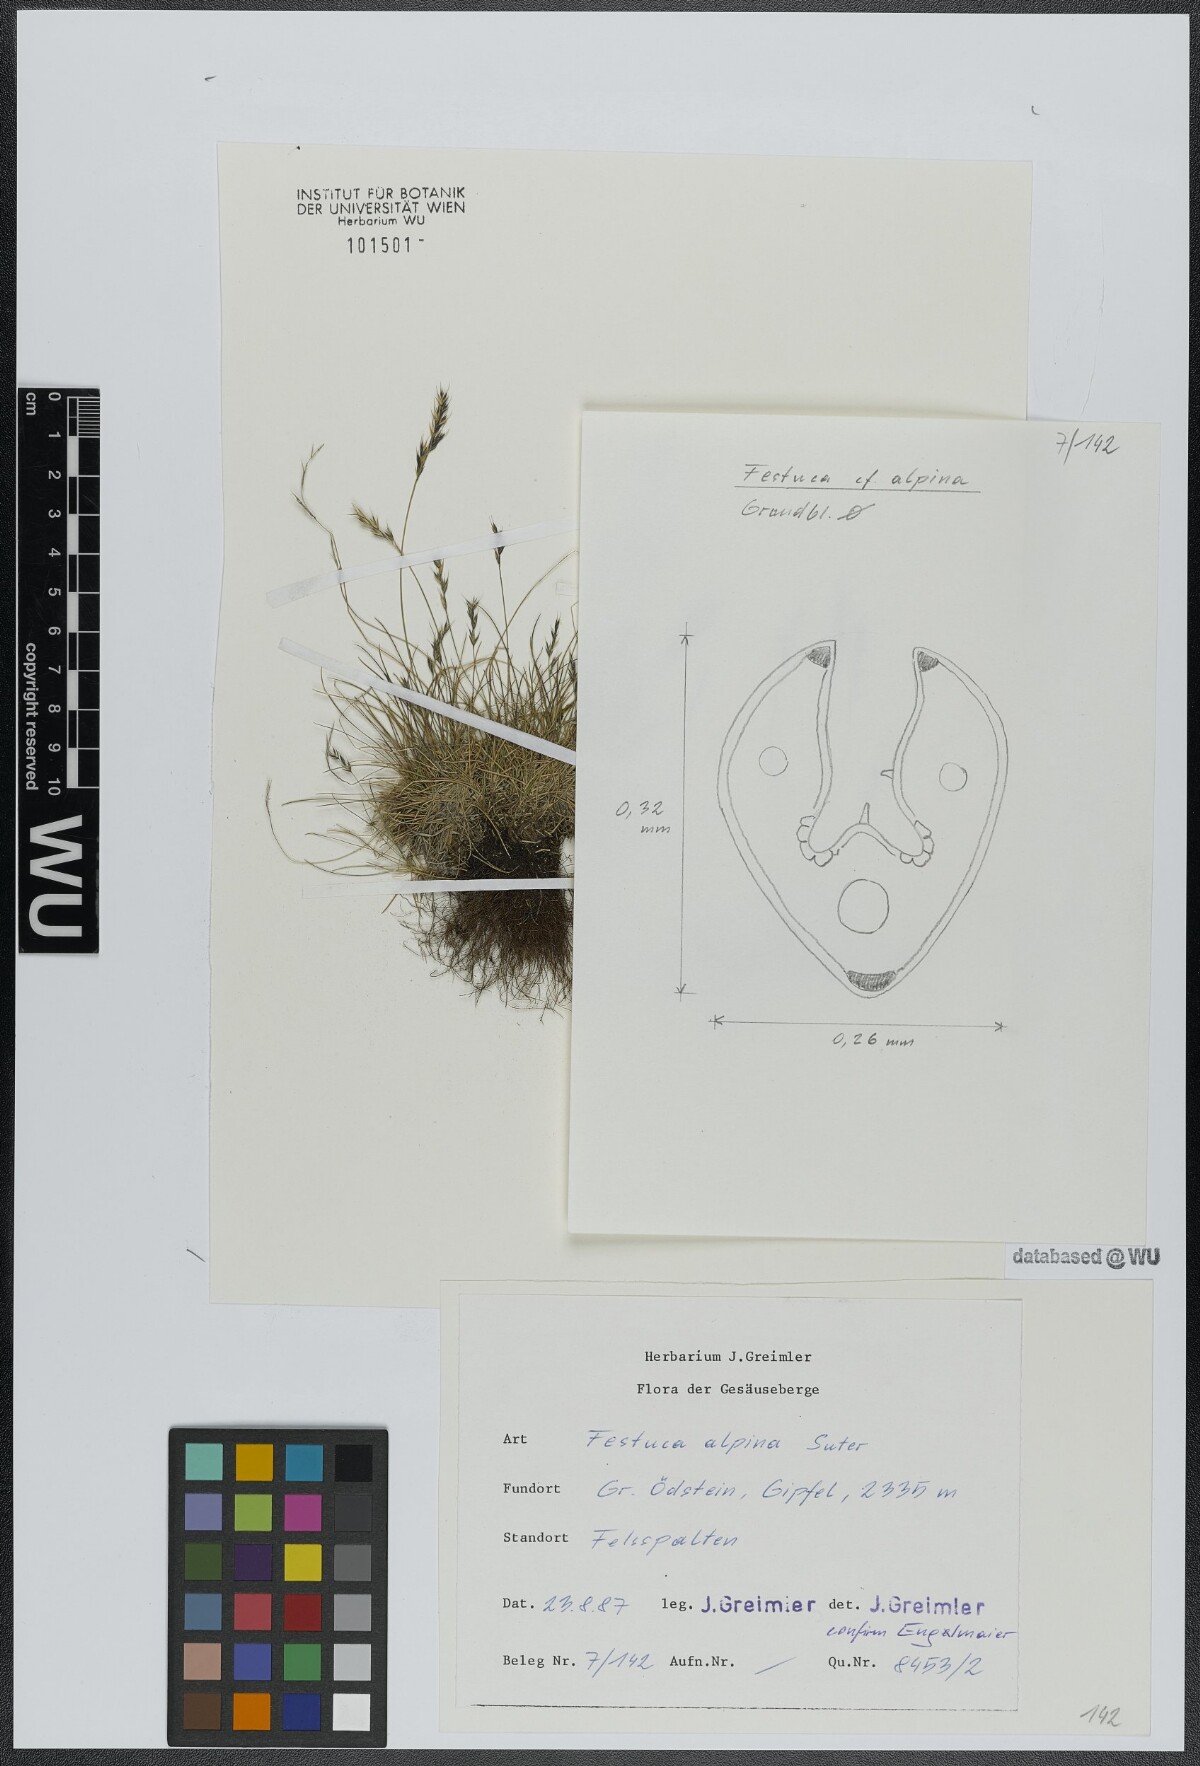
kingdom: Plantae
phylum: Tracheophyta
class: Liliopsida
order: Poales
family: Poaceae
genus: Festuca
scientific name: Festuca alpina
